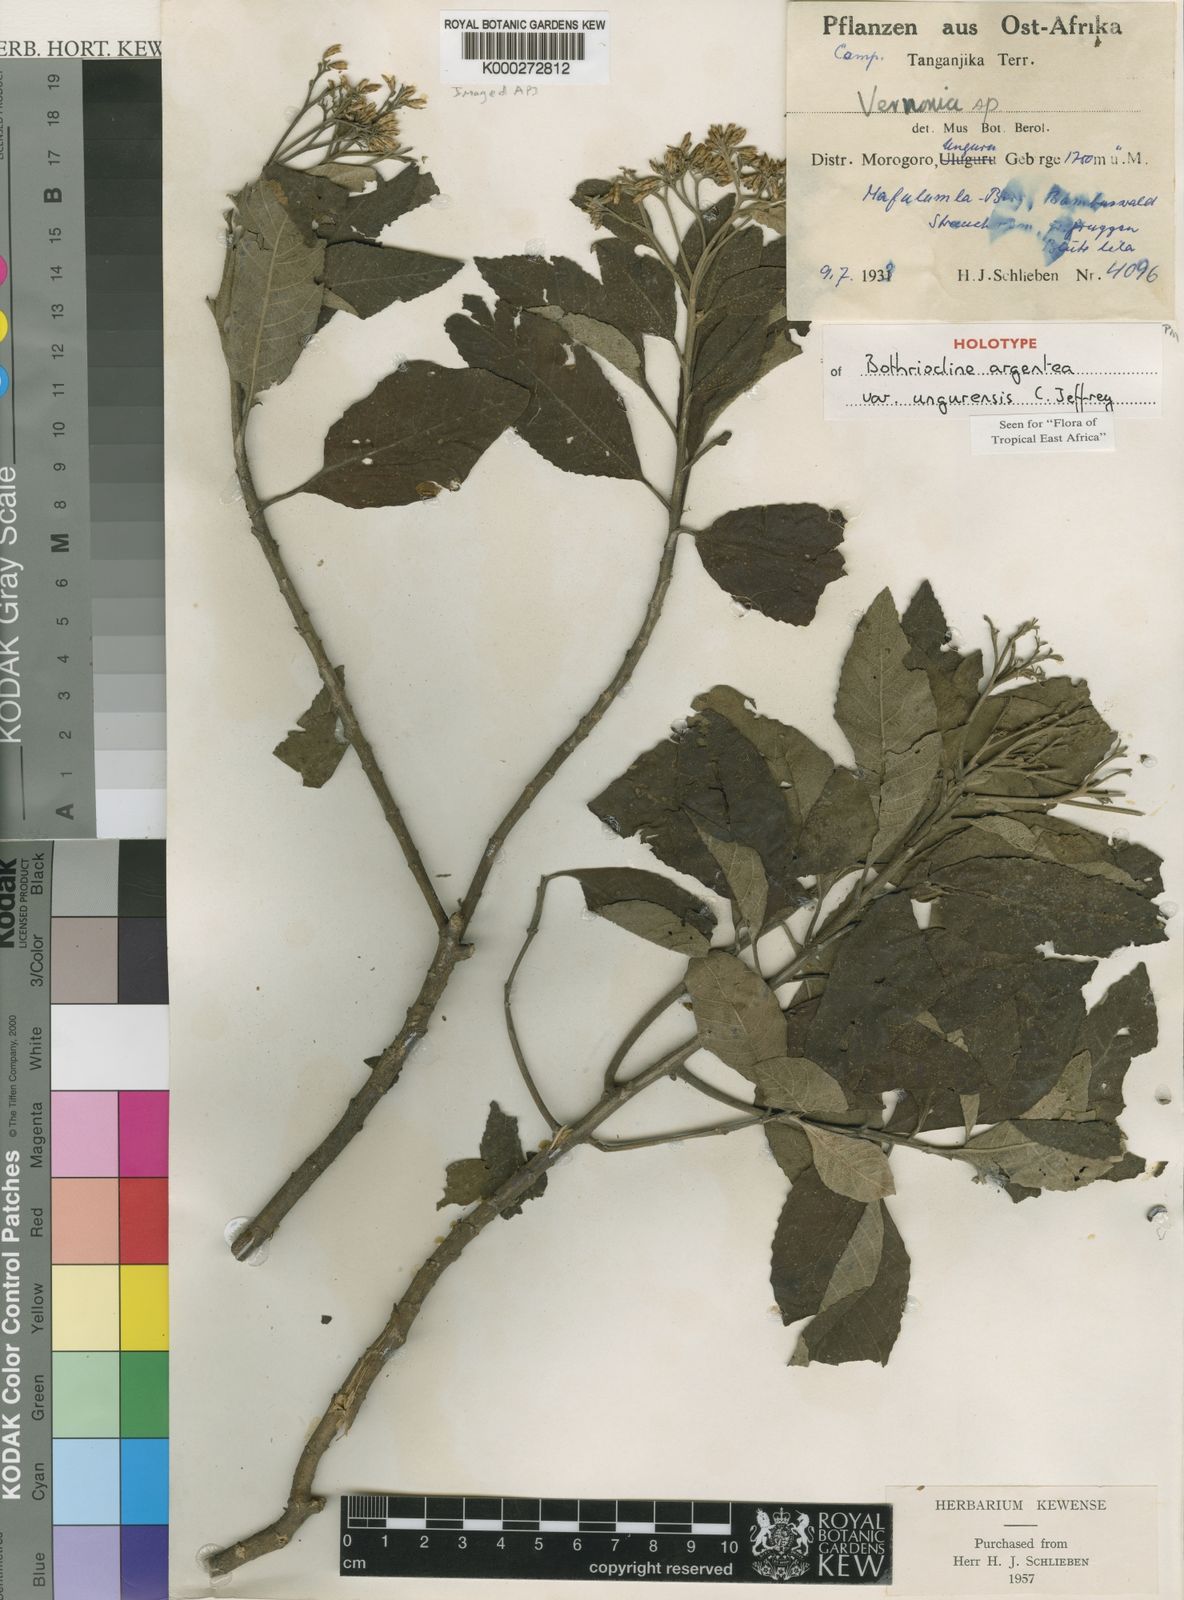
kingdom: Plantae
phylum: Tracheophyta
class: Magnoliopsida
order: Asterales
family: Asteraceae
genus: Bothriocline
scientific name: Bothriocline argentea
